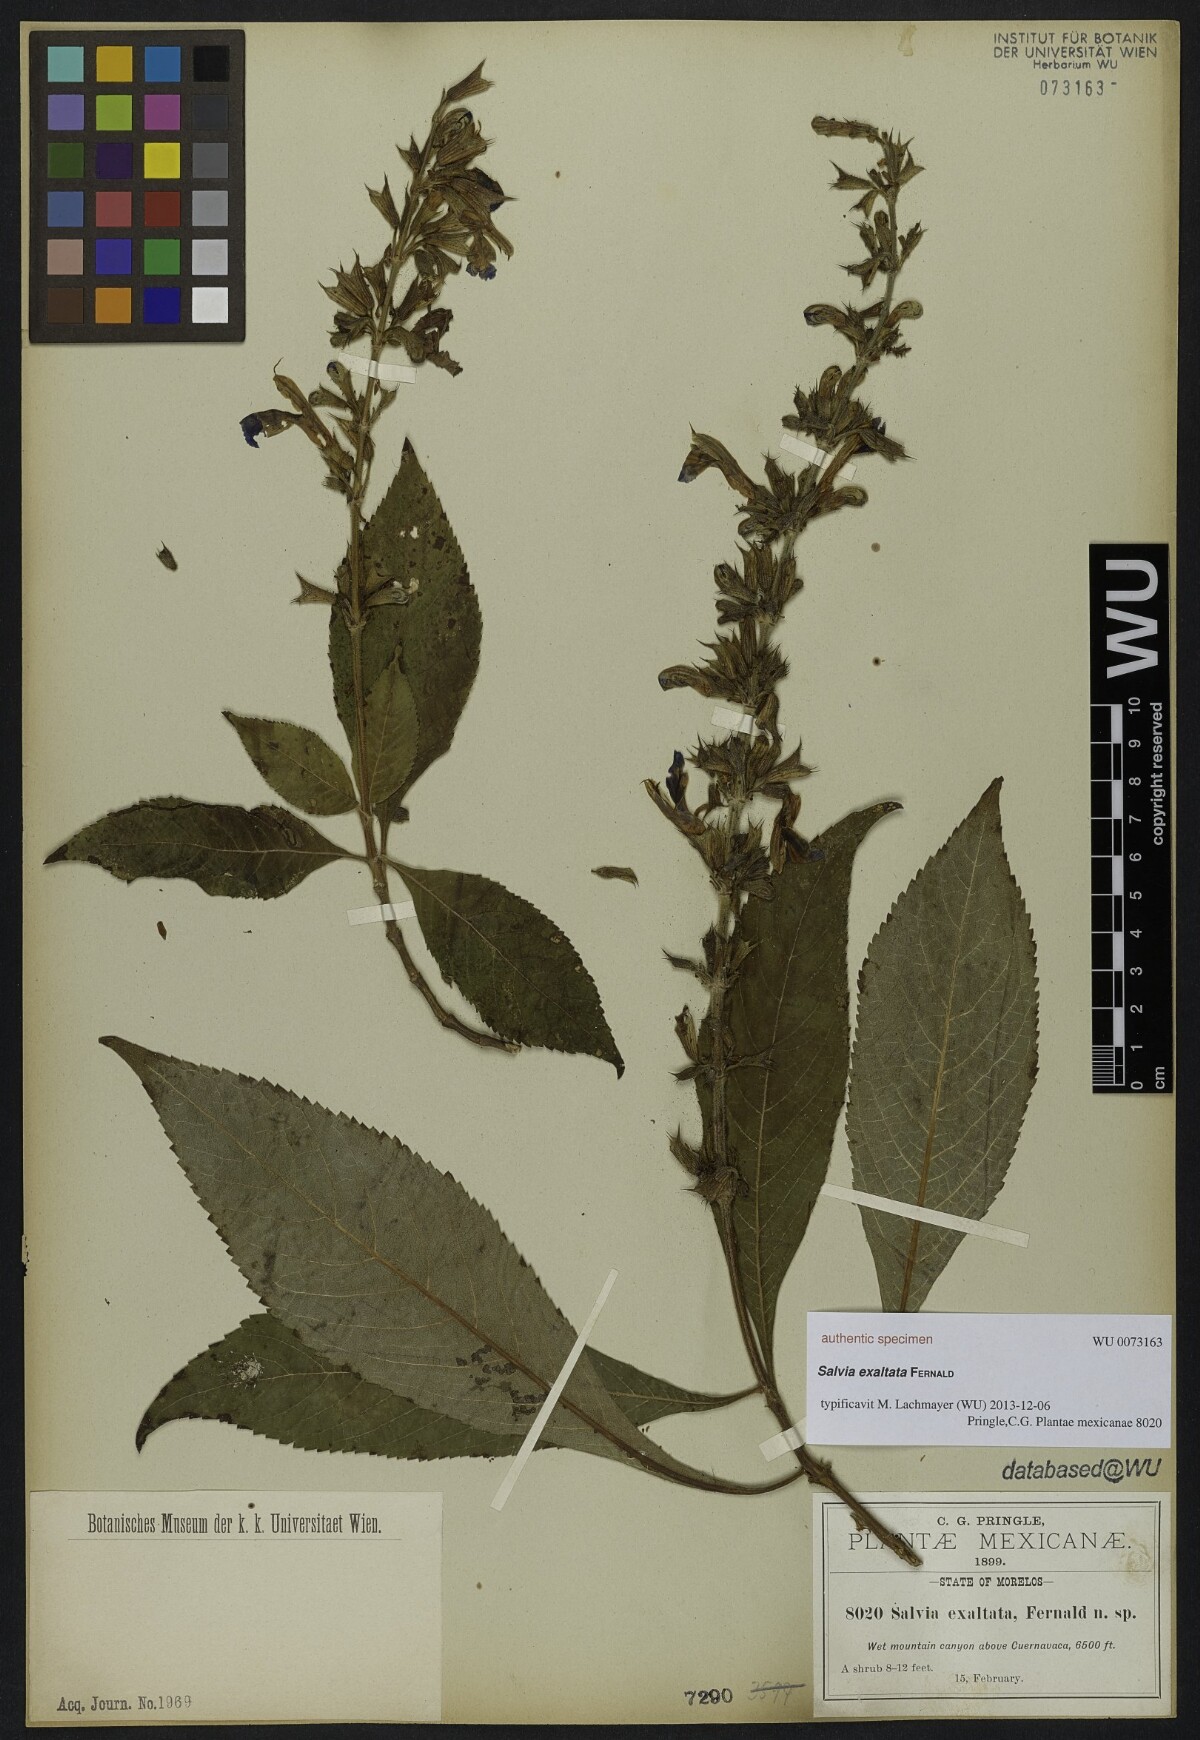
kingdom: Plantae
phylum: Tracheophyta
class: Magnoliopsida
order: Lamiales
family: Lamiaceae
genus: Salvia
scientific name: Salvia exaltata
